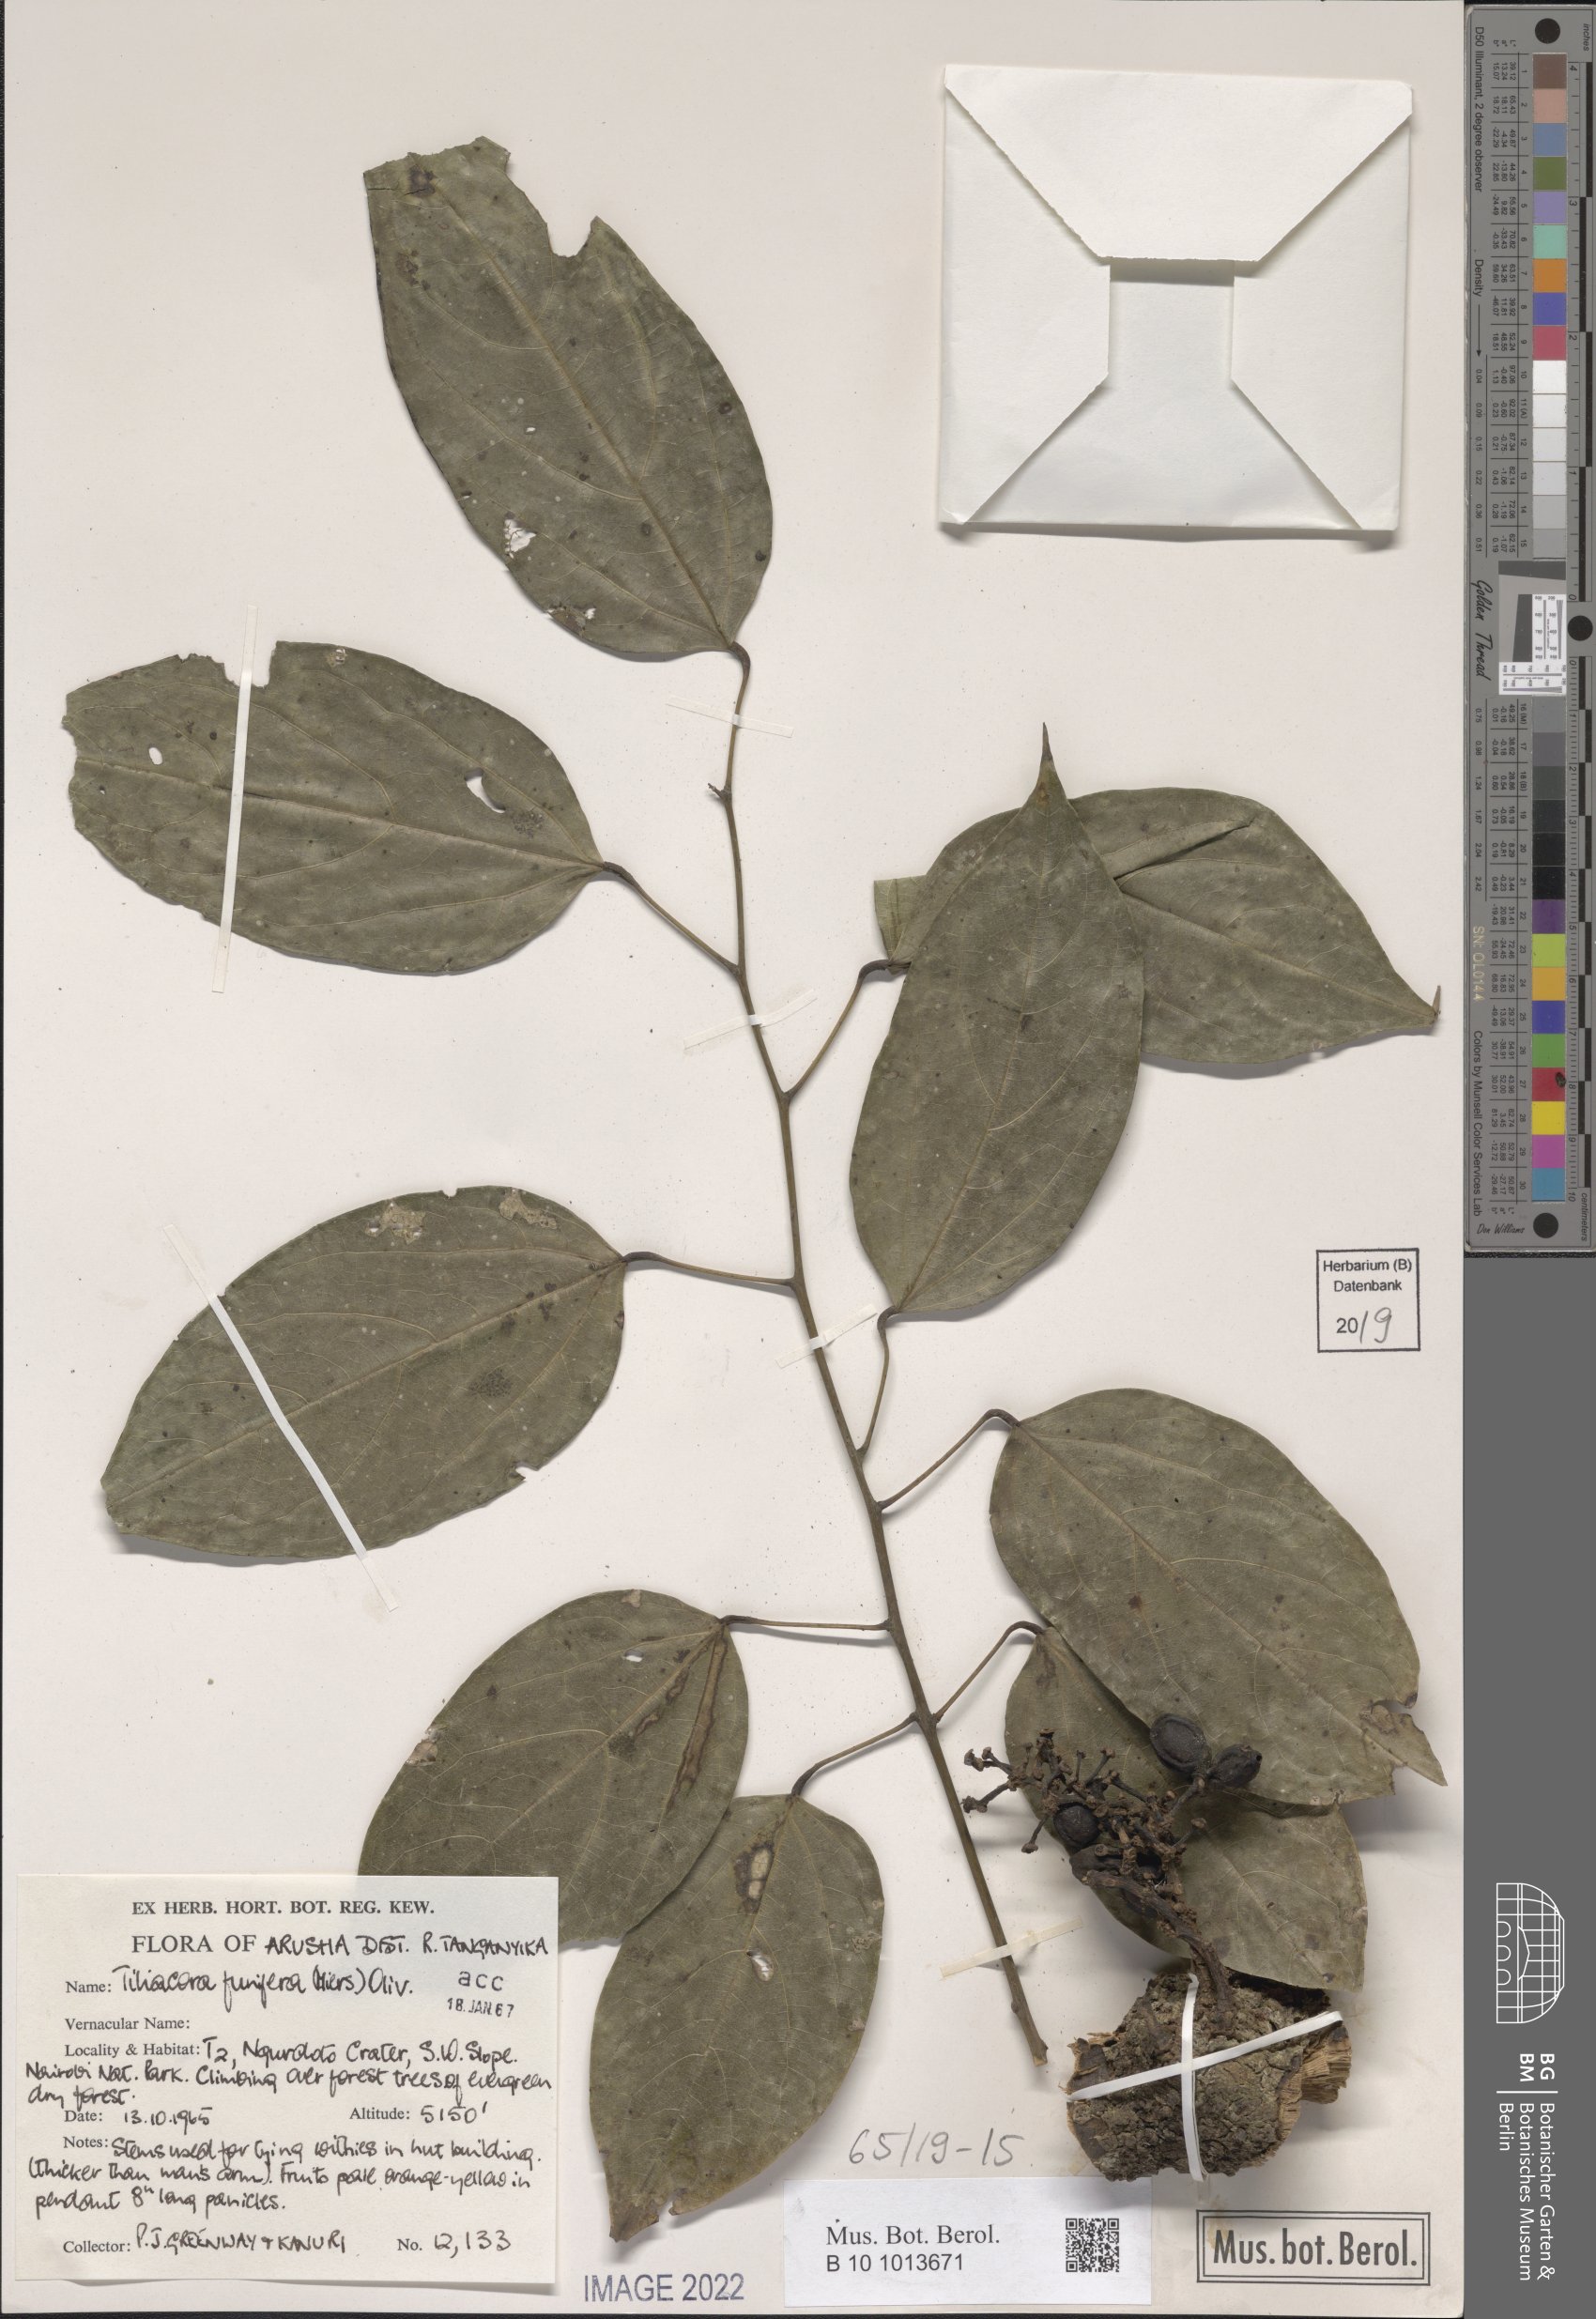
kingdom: Plantae
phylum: Tracheophyta
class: Magnoliopsida
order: Ranunculales
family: Menispermaceae
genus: Tiliacora
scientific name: Tiliacora funifera
